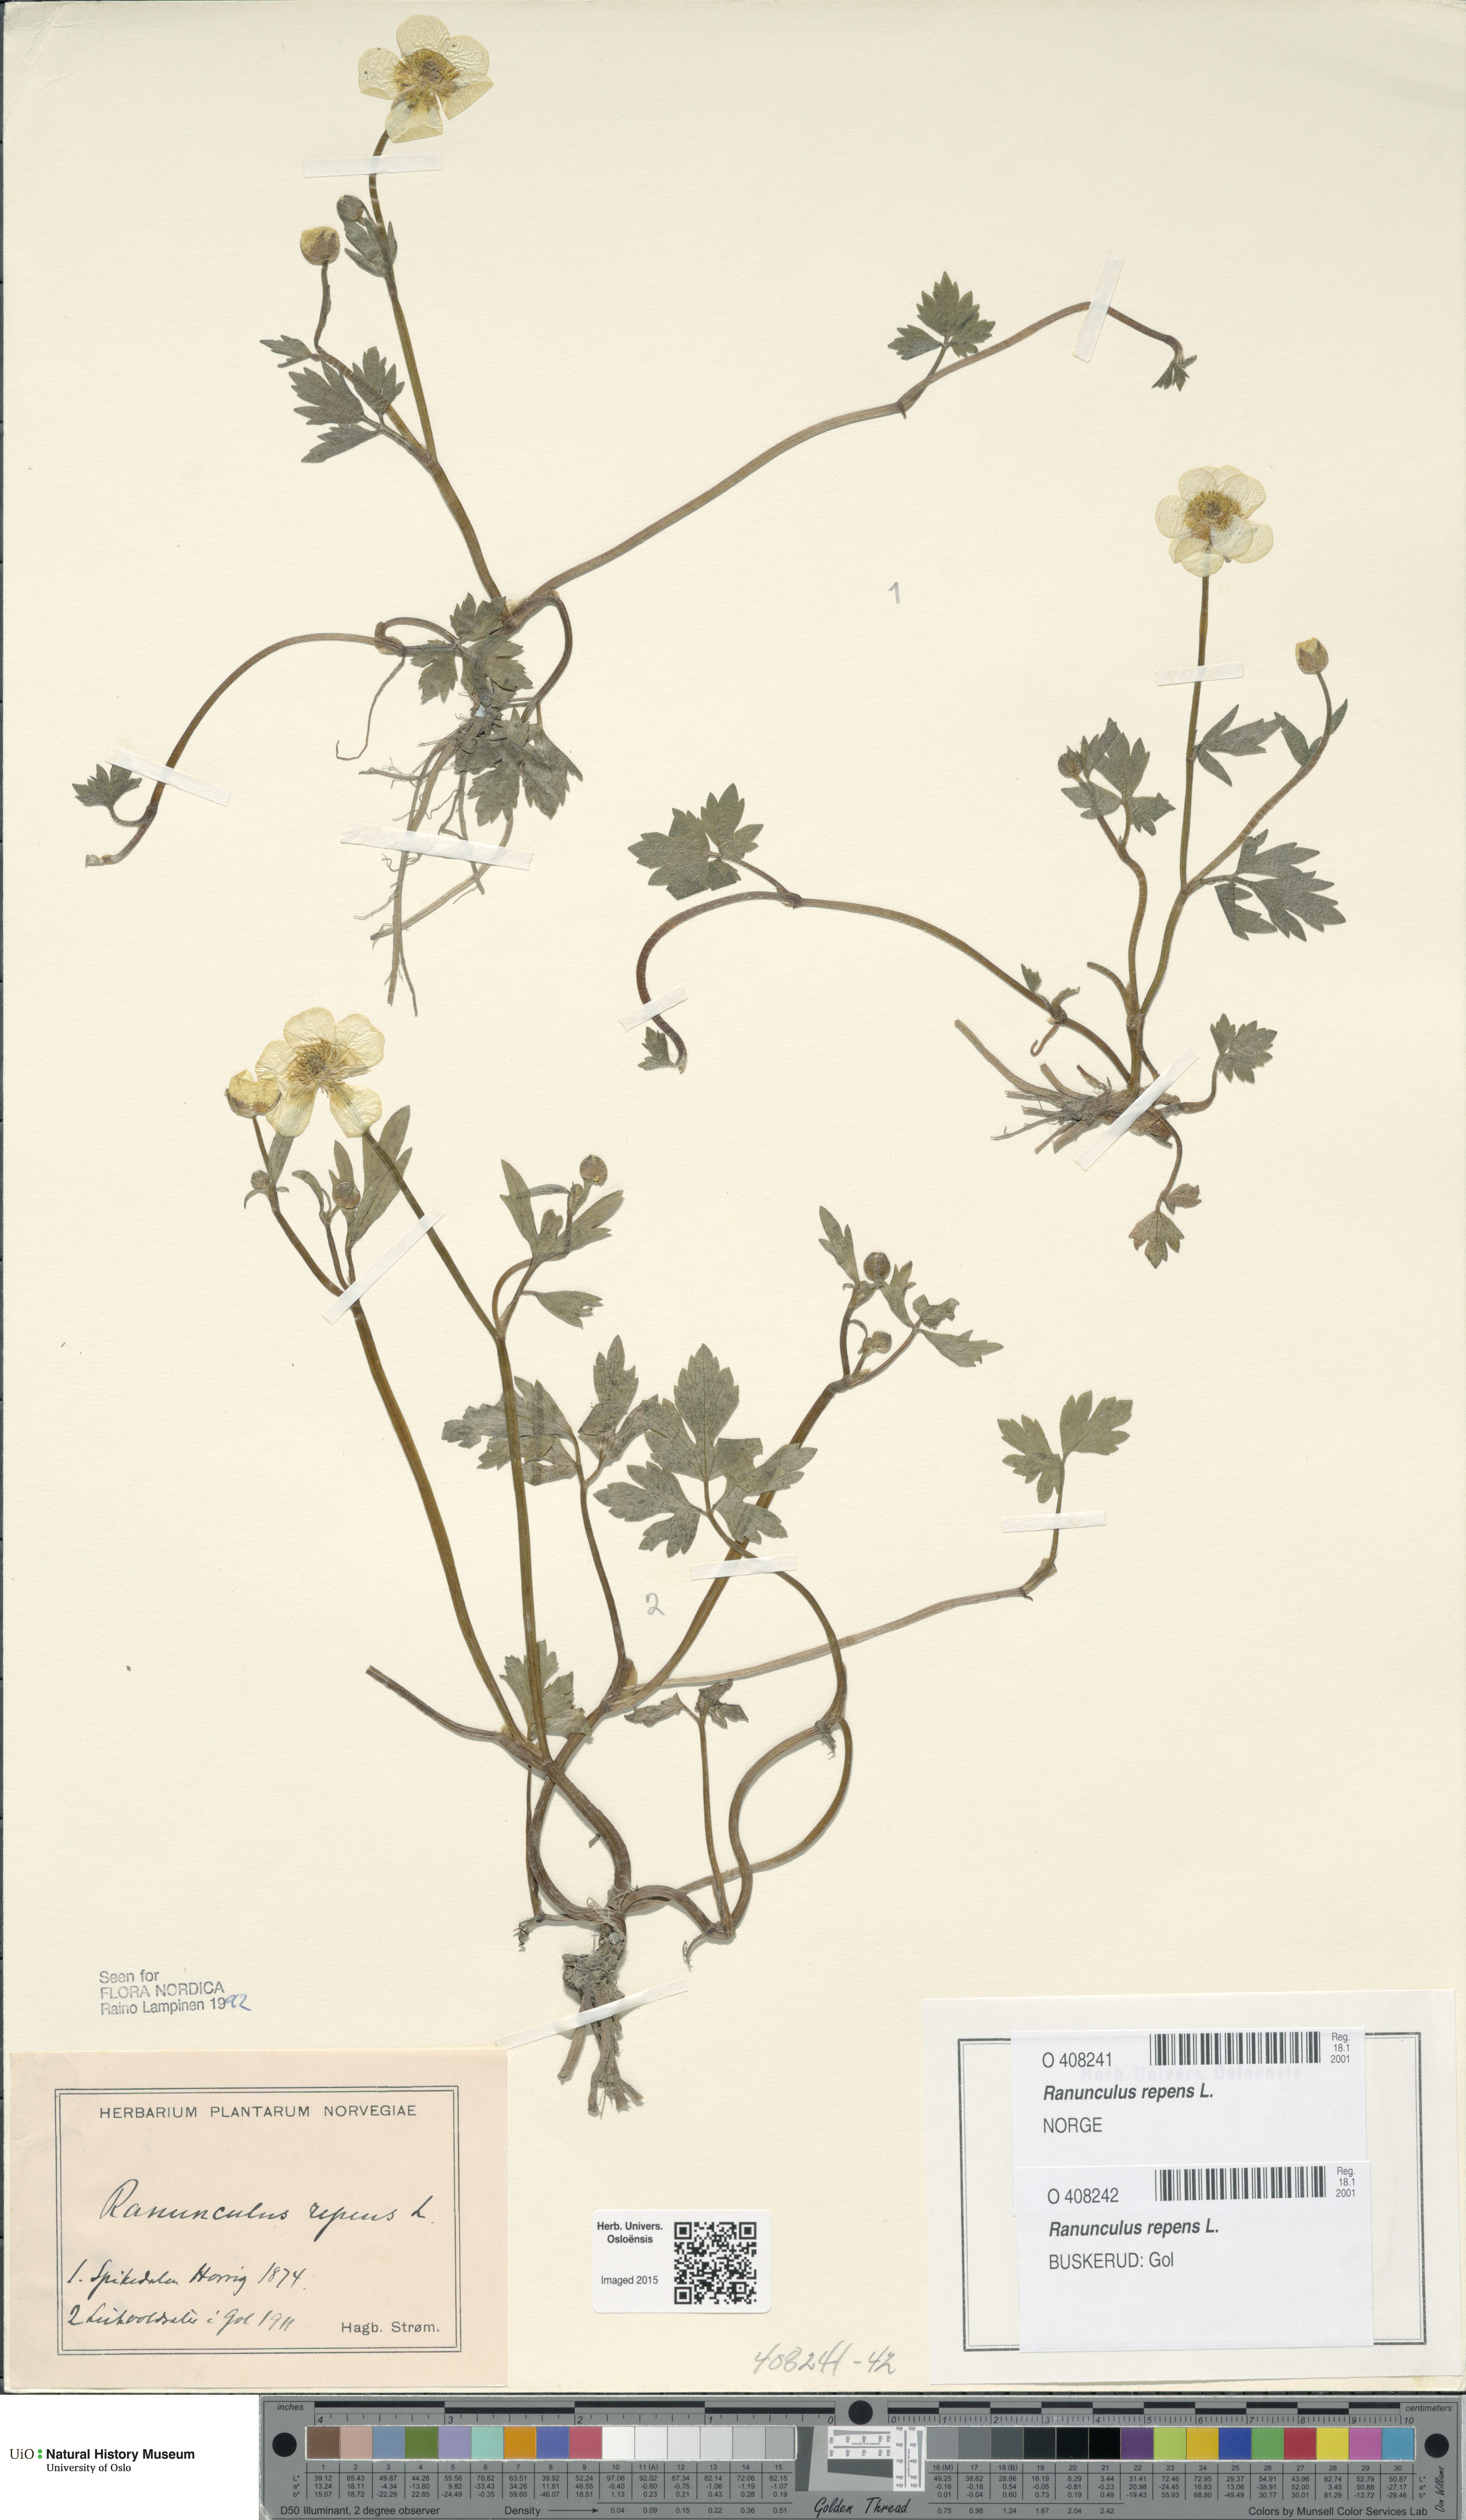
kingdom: Plantae
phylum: Tracheophyta
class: Magnoliopsida
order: Ranunculales
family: Ranunculaceae
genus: Ranunculus
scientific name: Ranunculus repens
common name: Creeping buttercup
